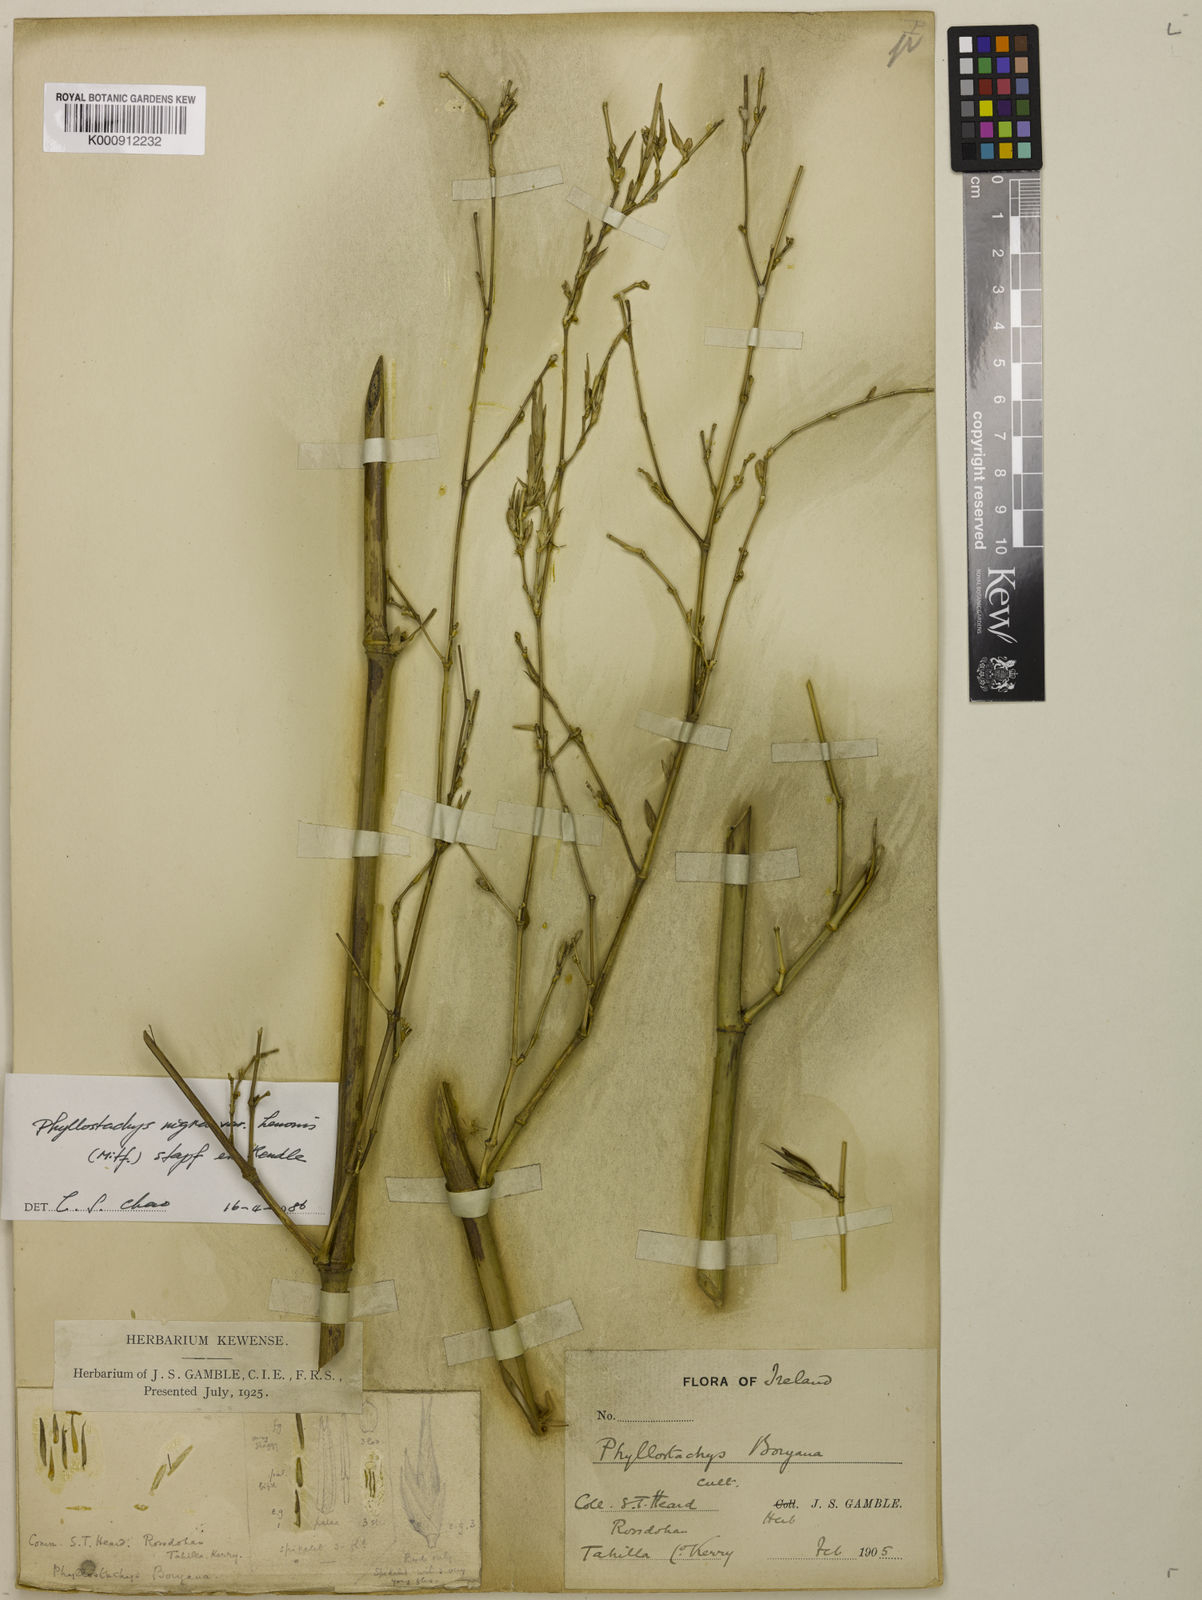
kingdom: Plantae
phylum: Tracheophyta
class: Liliopsida
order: Poales
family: Poaceae
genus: Phyllostachys
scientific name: Phyllostachys nigra
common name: Black bamboo
